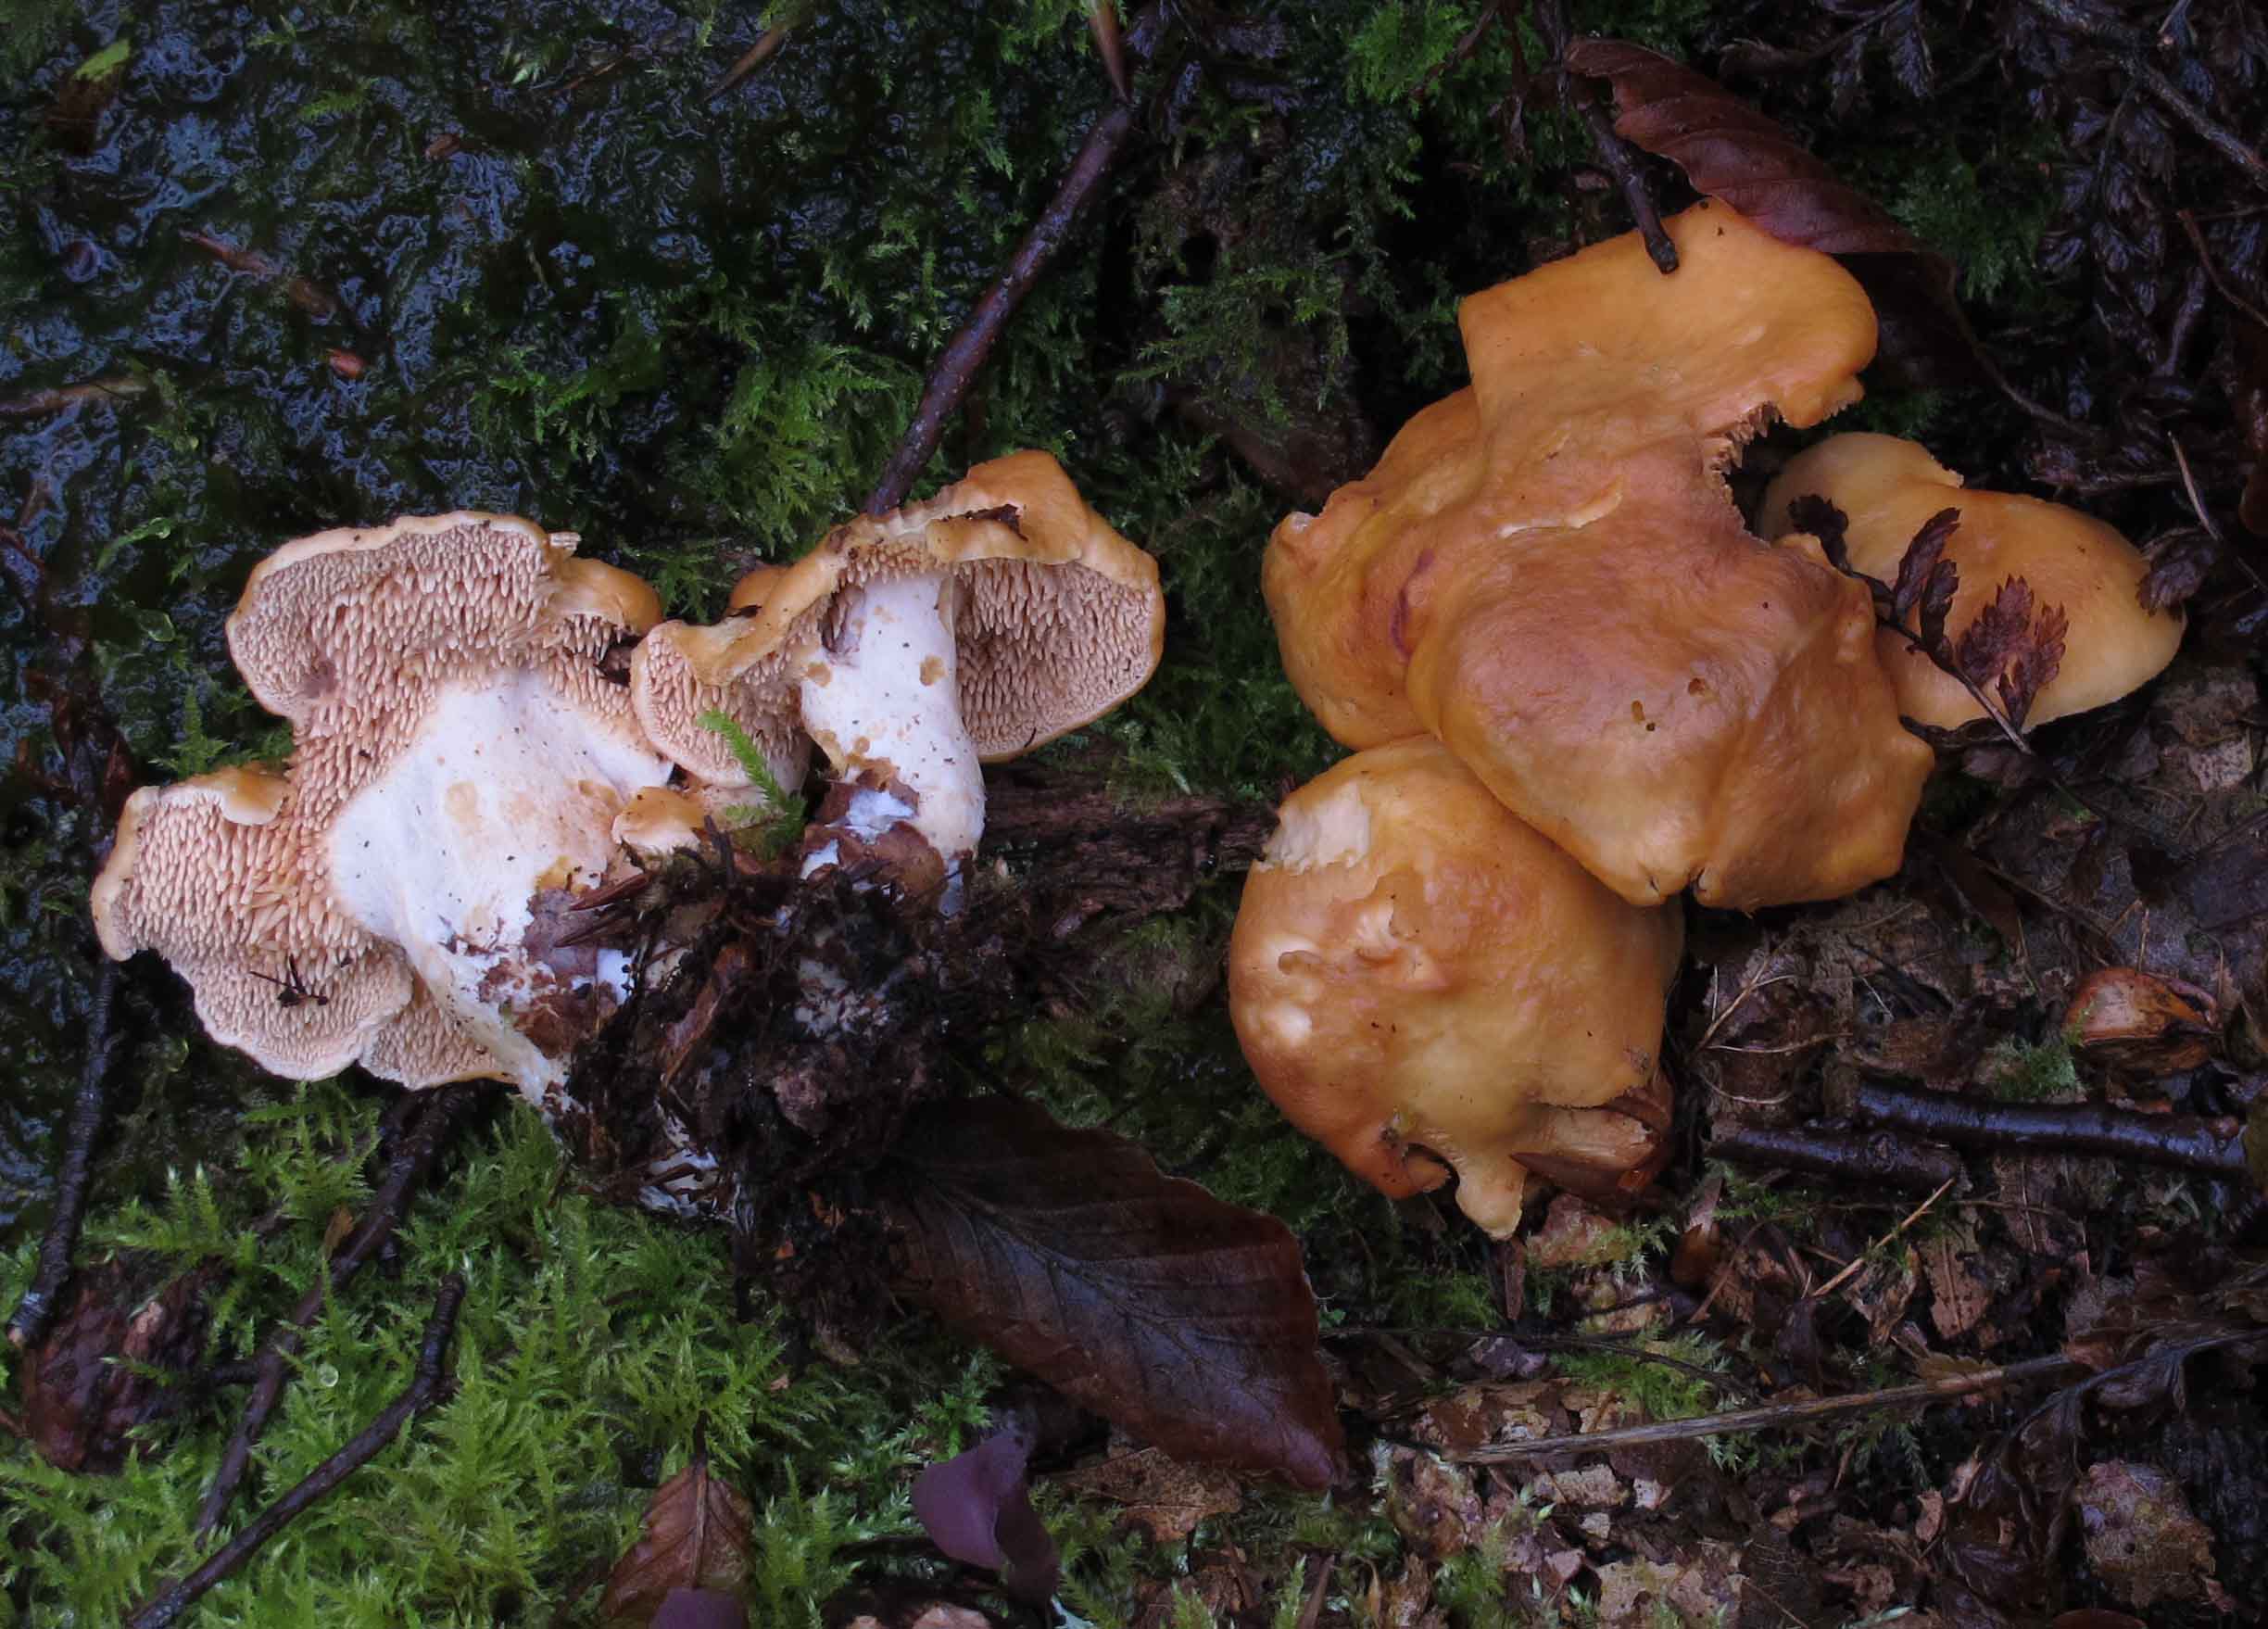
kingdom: Fungi
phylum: Basidiomycota
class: Agaricomycetes
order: Cantharellales
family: Hydnaceae
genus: Hydnum
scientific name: Hydnum ellipsosporum
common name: tandet pigsvamp
